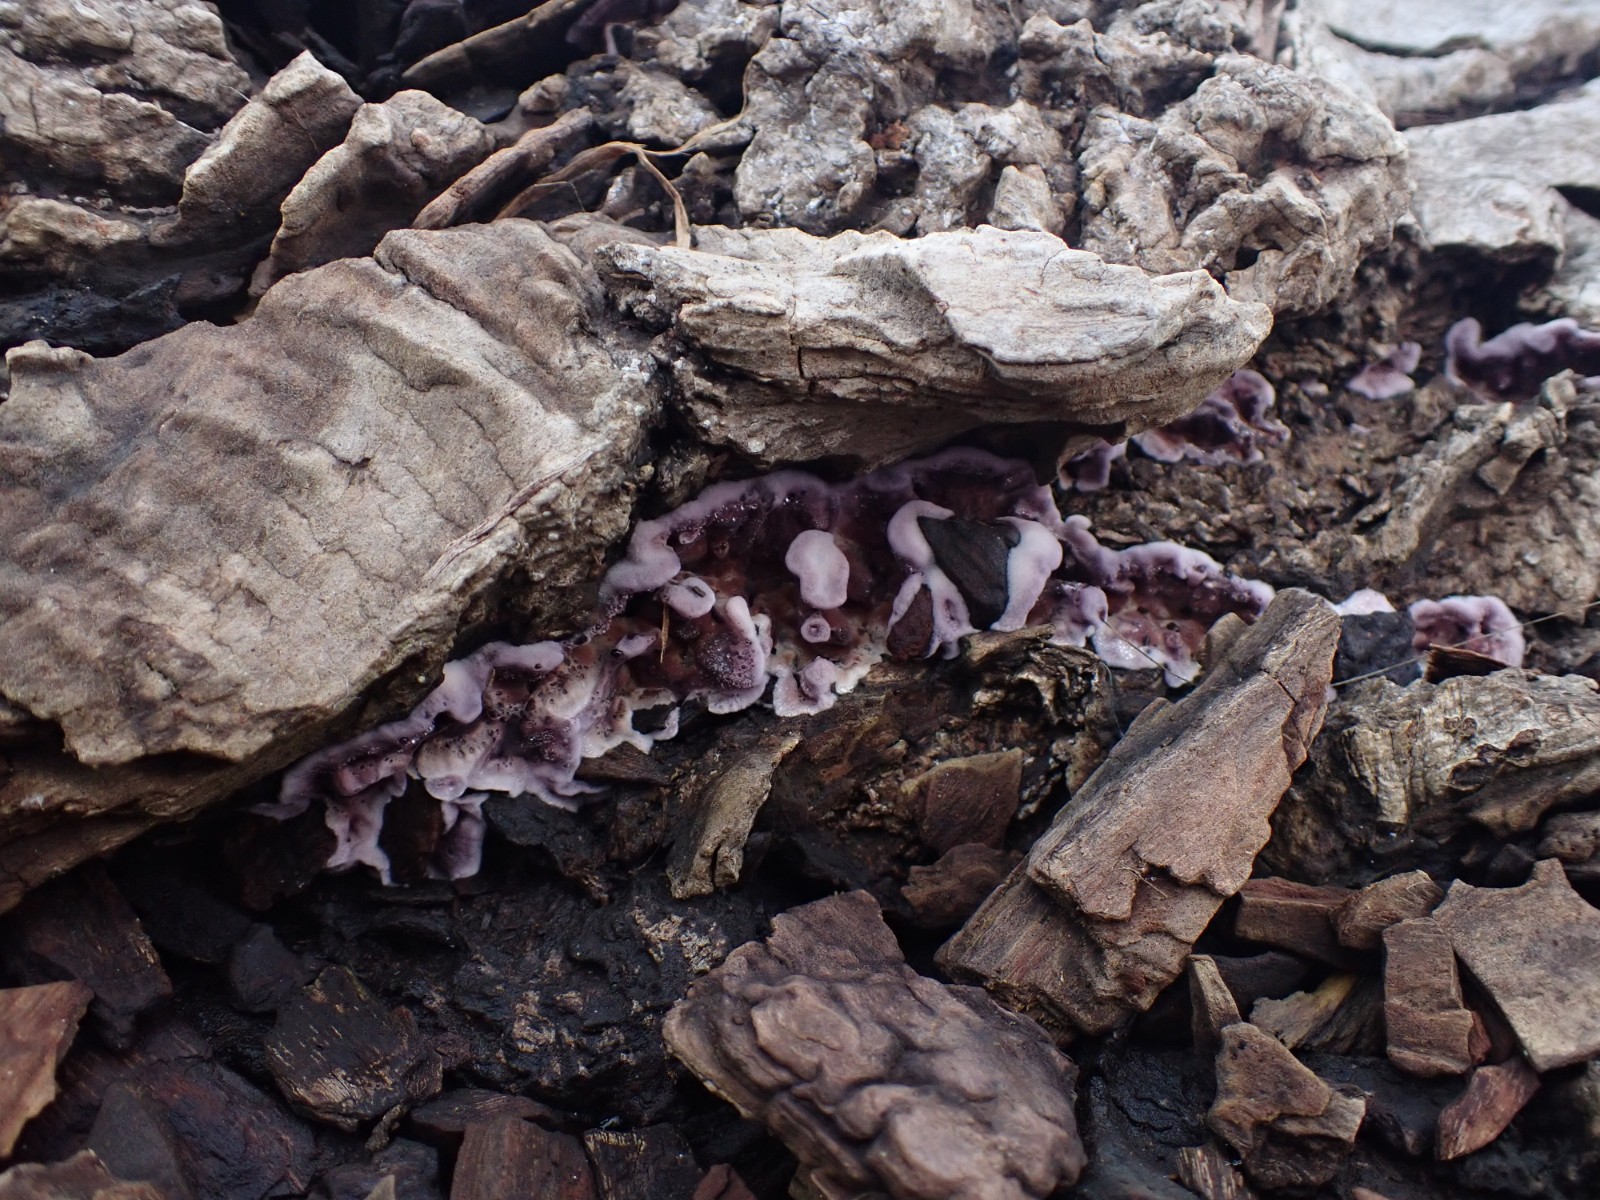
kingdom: Fungi
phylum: Basidiomycota
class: Agaricomycetes
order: Agaricales
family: Cyphellaceae
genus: Chondrostereum
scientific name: Chondrostereum purpureum
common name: purpurlædersvamp
